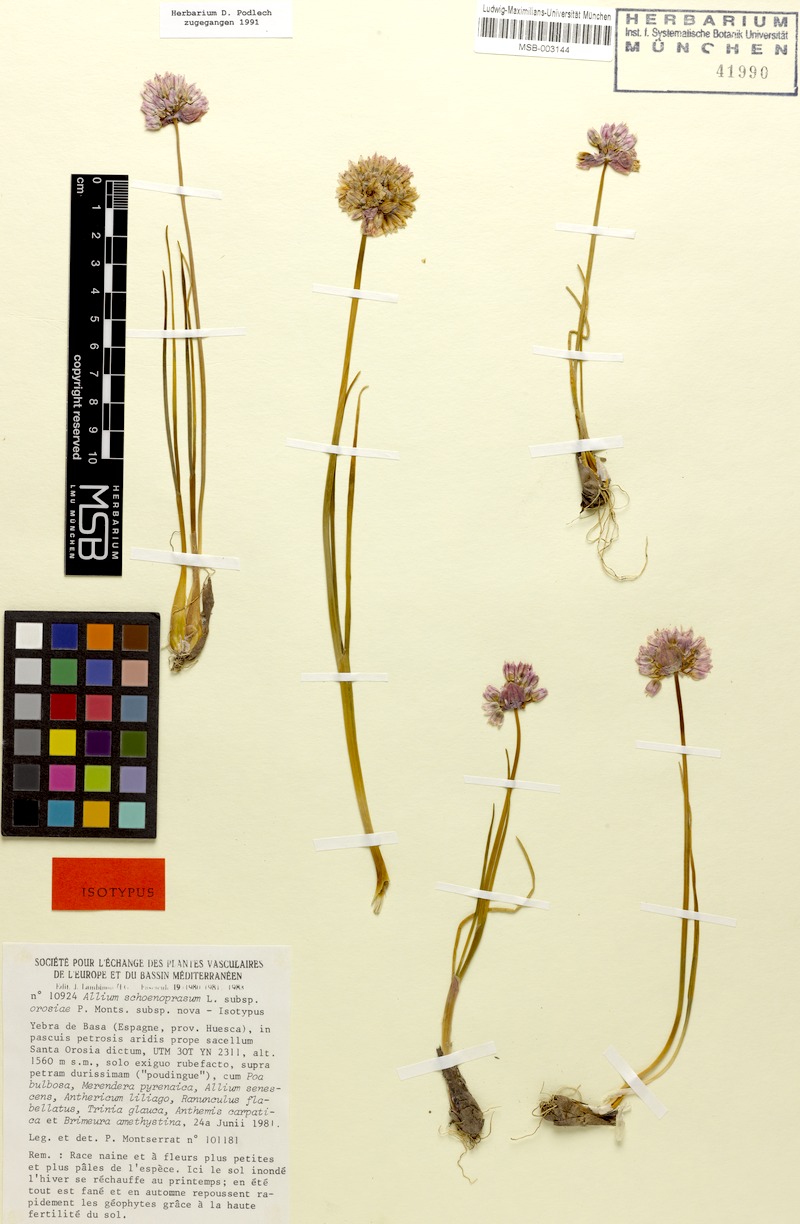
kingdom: Plantae
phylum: Tracheophyta
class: Liliopsida
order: Asparagales
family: Amaryllidaceae
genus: Allium
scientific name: Allium schoenoprasum
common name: Chives
